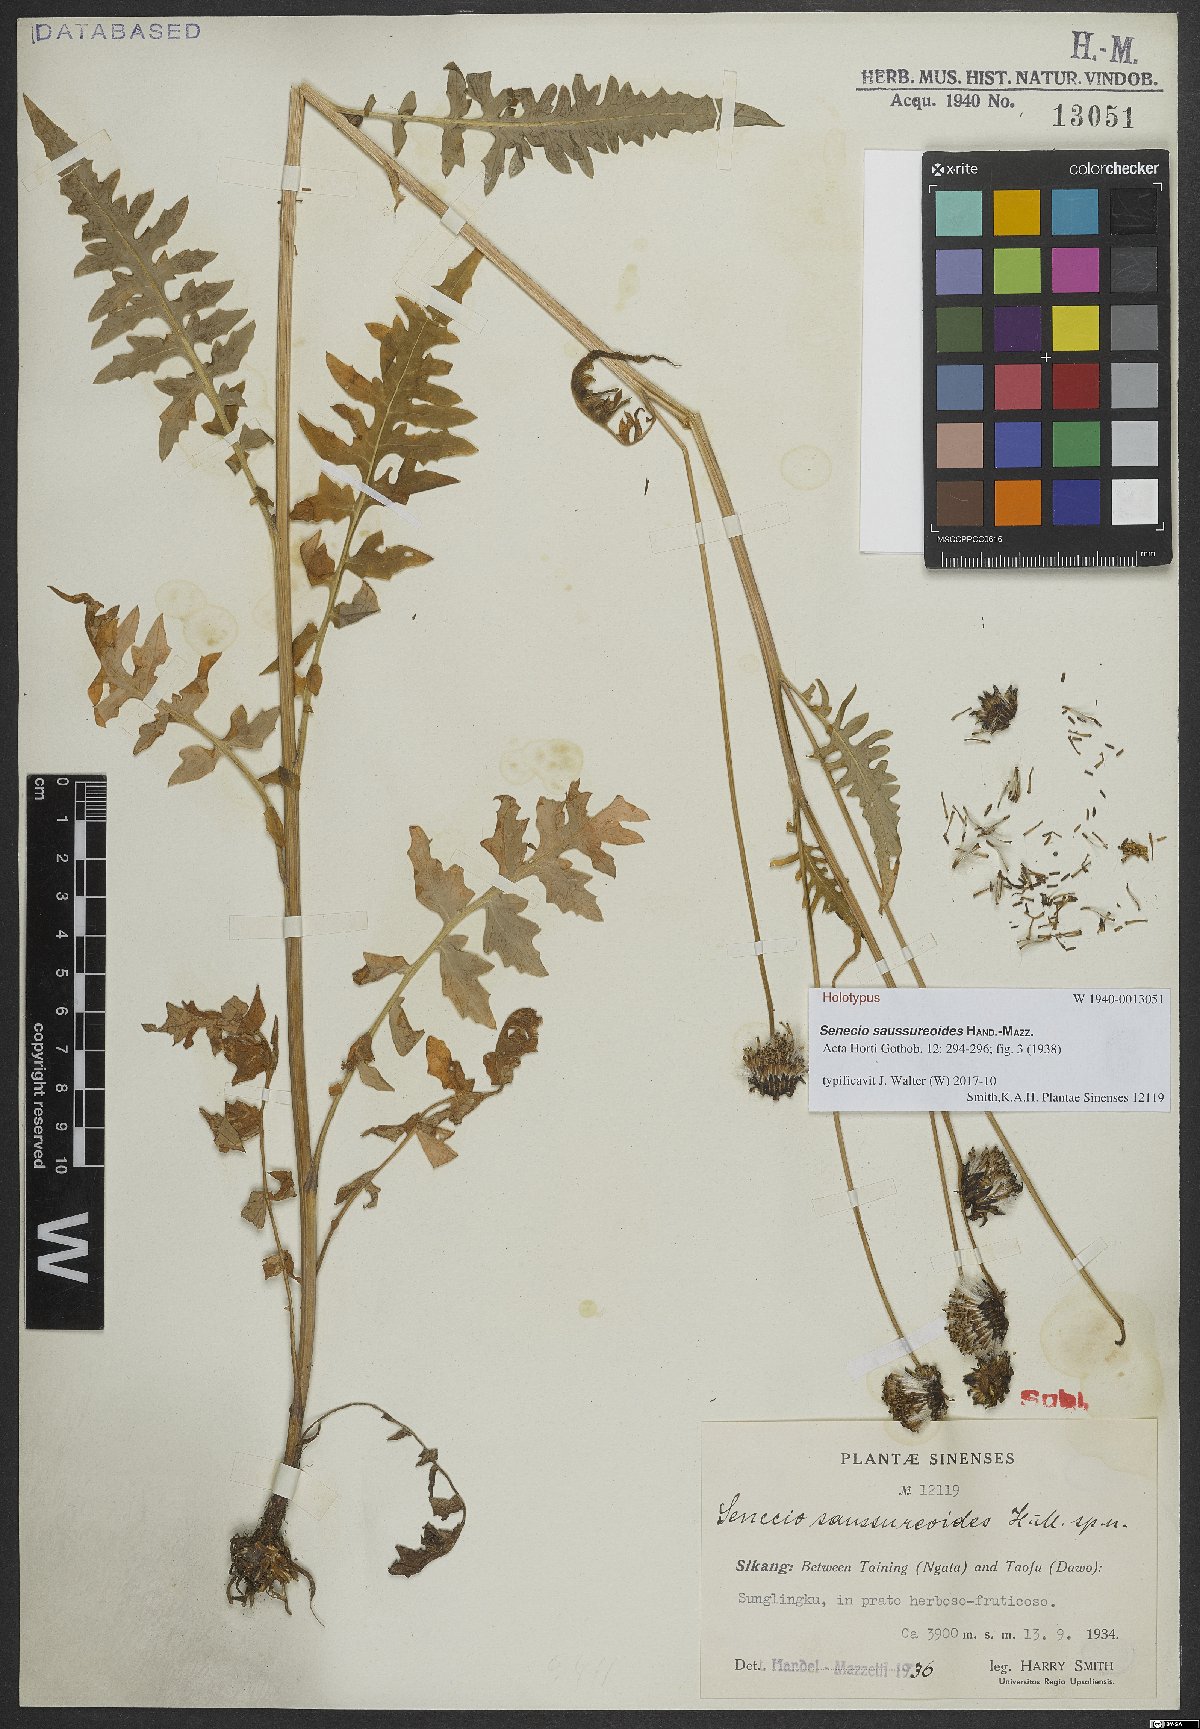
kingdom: Plantae
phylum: Tracheophyta
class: Magnoliopsida
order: Asterales
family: Asteraceae
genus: Senecio
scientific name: Senecio saussureoides
